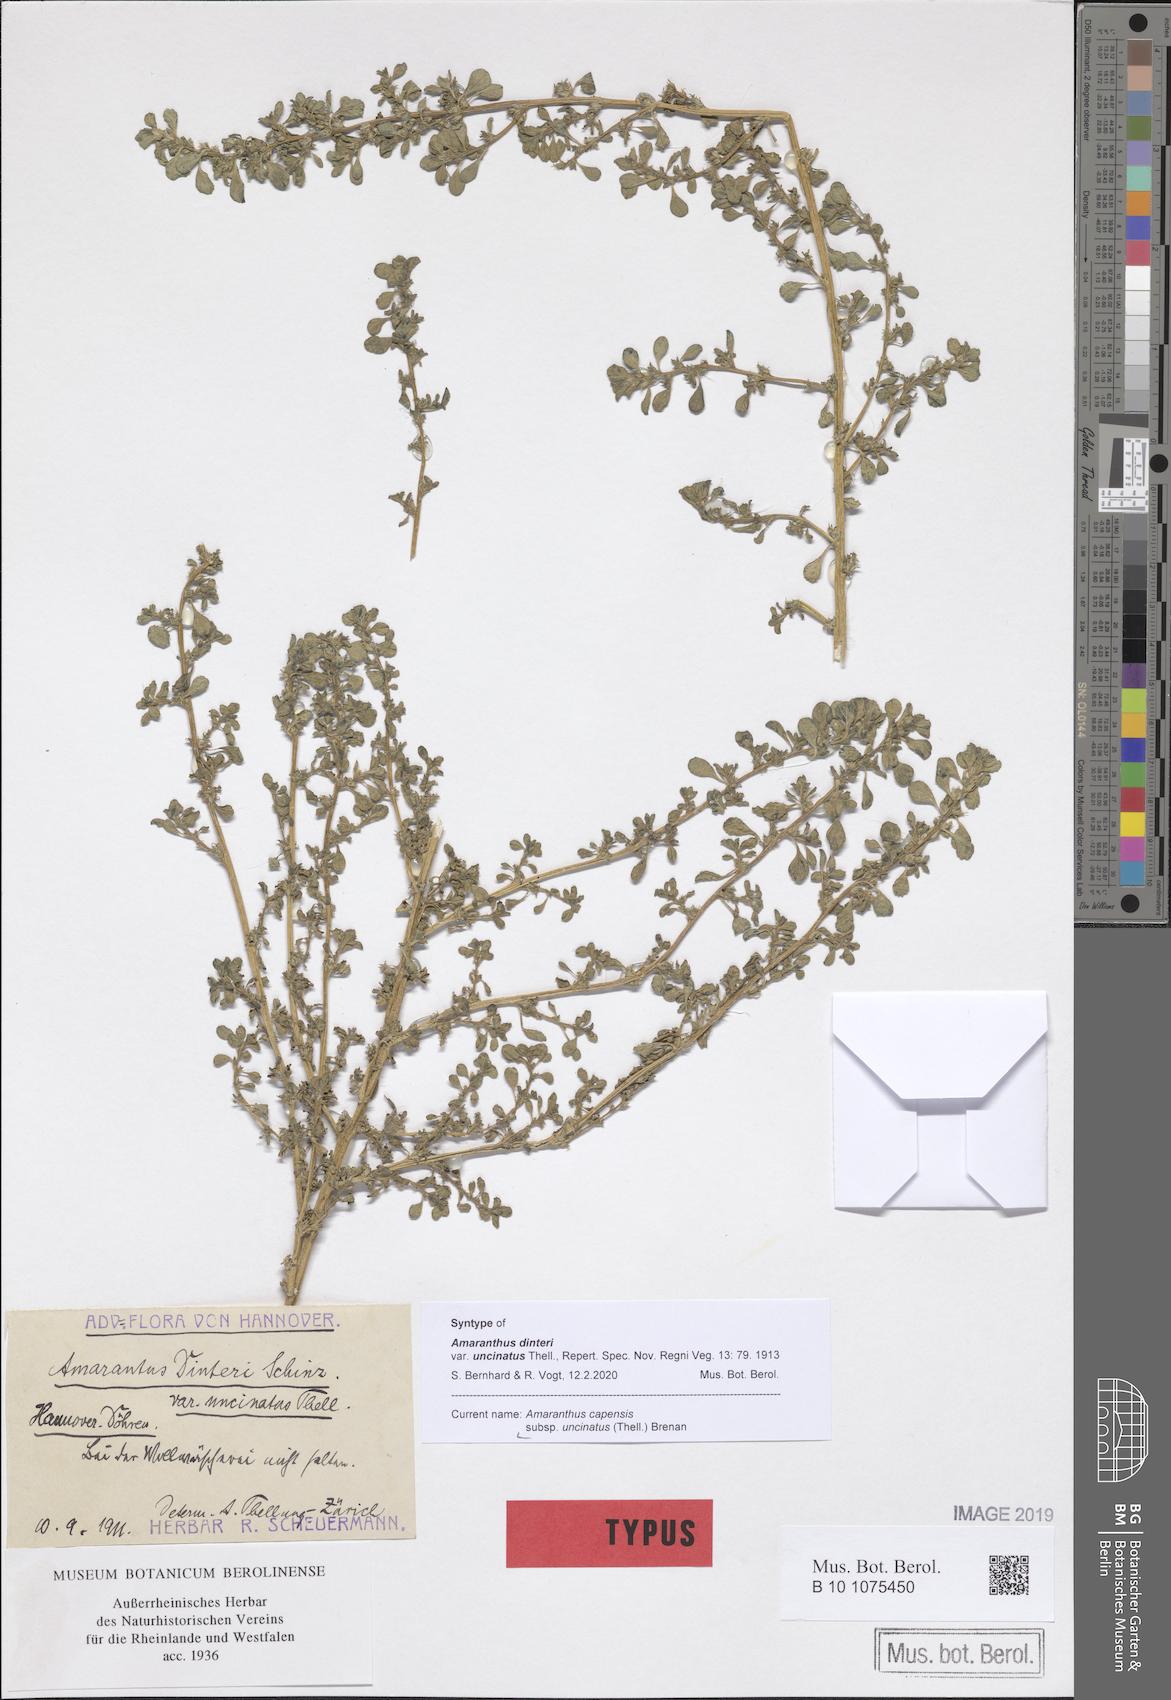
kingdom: Plantae
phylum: Tracheophyta
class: Magnoliopsida
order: Caryophyllales
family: Amaranthaceae
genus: Amaranthus
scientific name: Amaranthus capensis
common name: Cape pigweed
